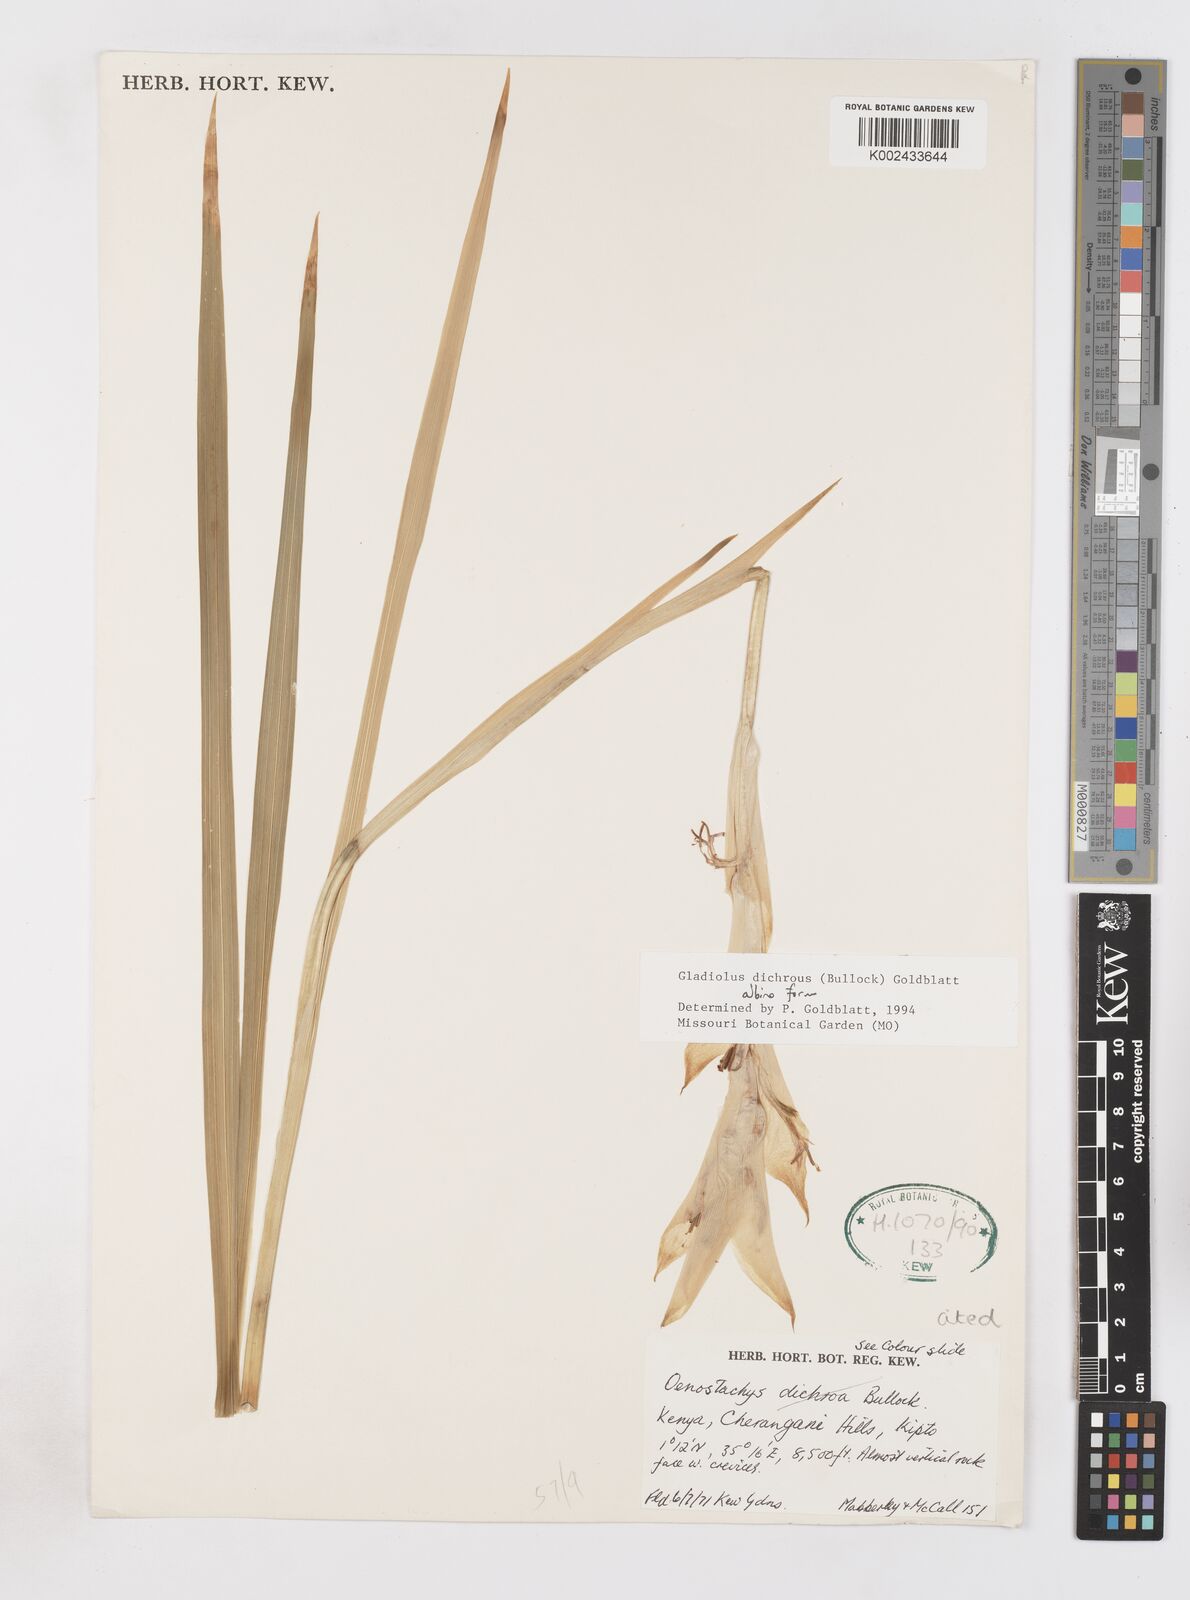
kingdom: Plantae
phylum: Tracheophyta
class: Liliopsida
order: Asparagales
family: Iridaceae
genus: Gladiolus
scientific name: Gladiolus dichrous
